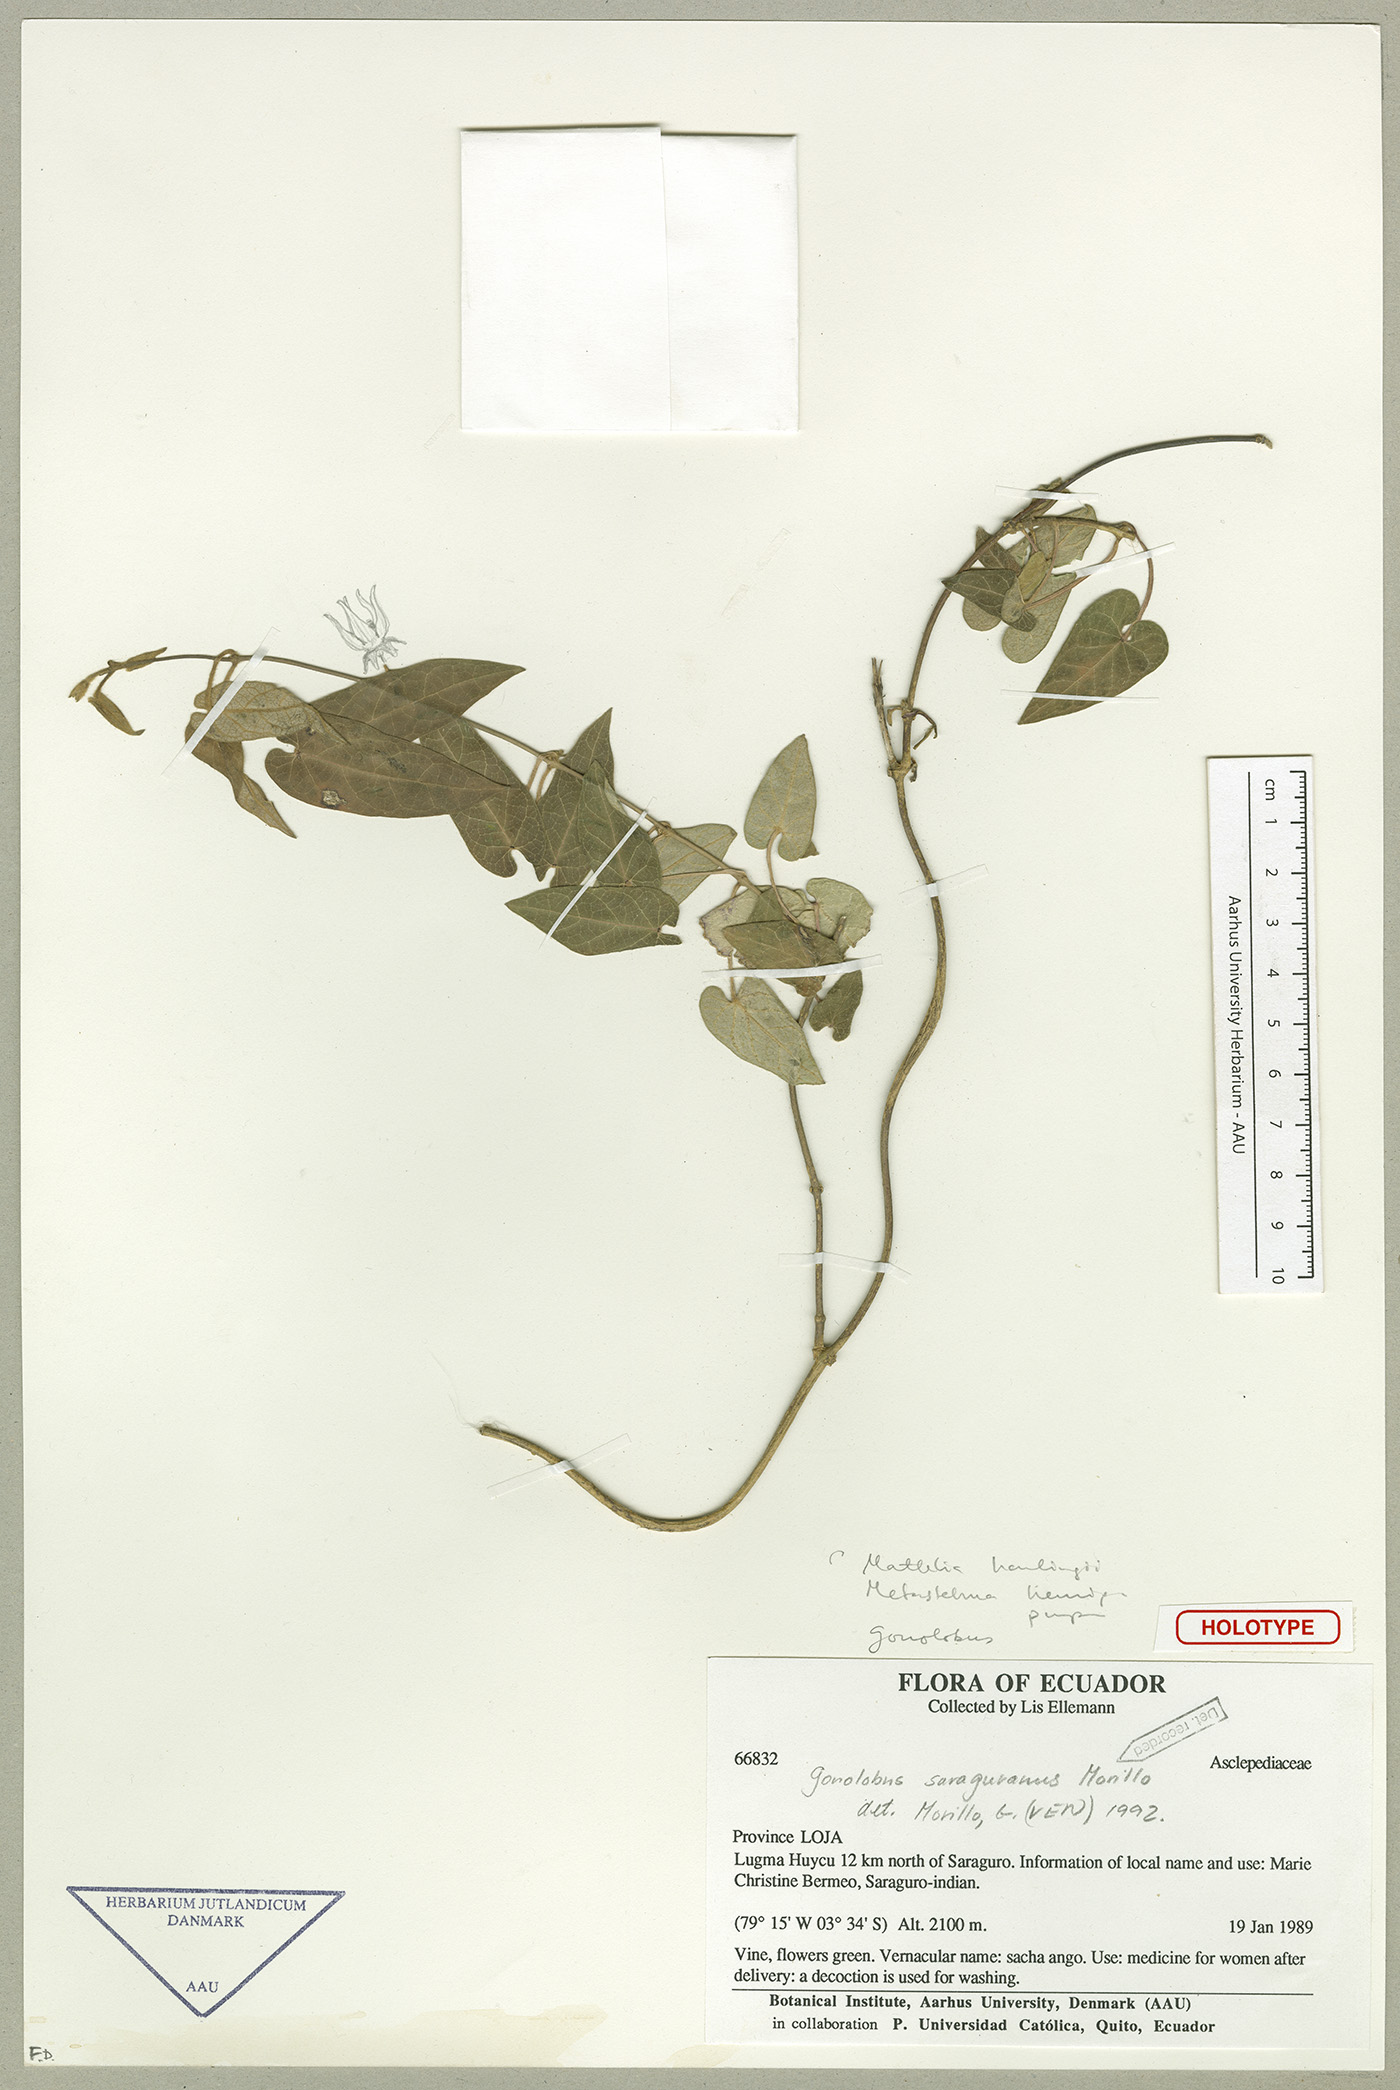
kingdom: Plantae
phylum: Tracheophyta
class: Magnoliopsida
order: Gentianales
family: Apocynaceae
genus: Gonolobus
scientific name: Gonolobus saraguranus
